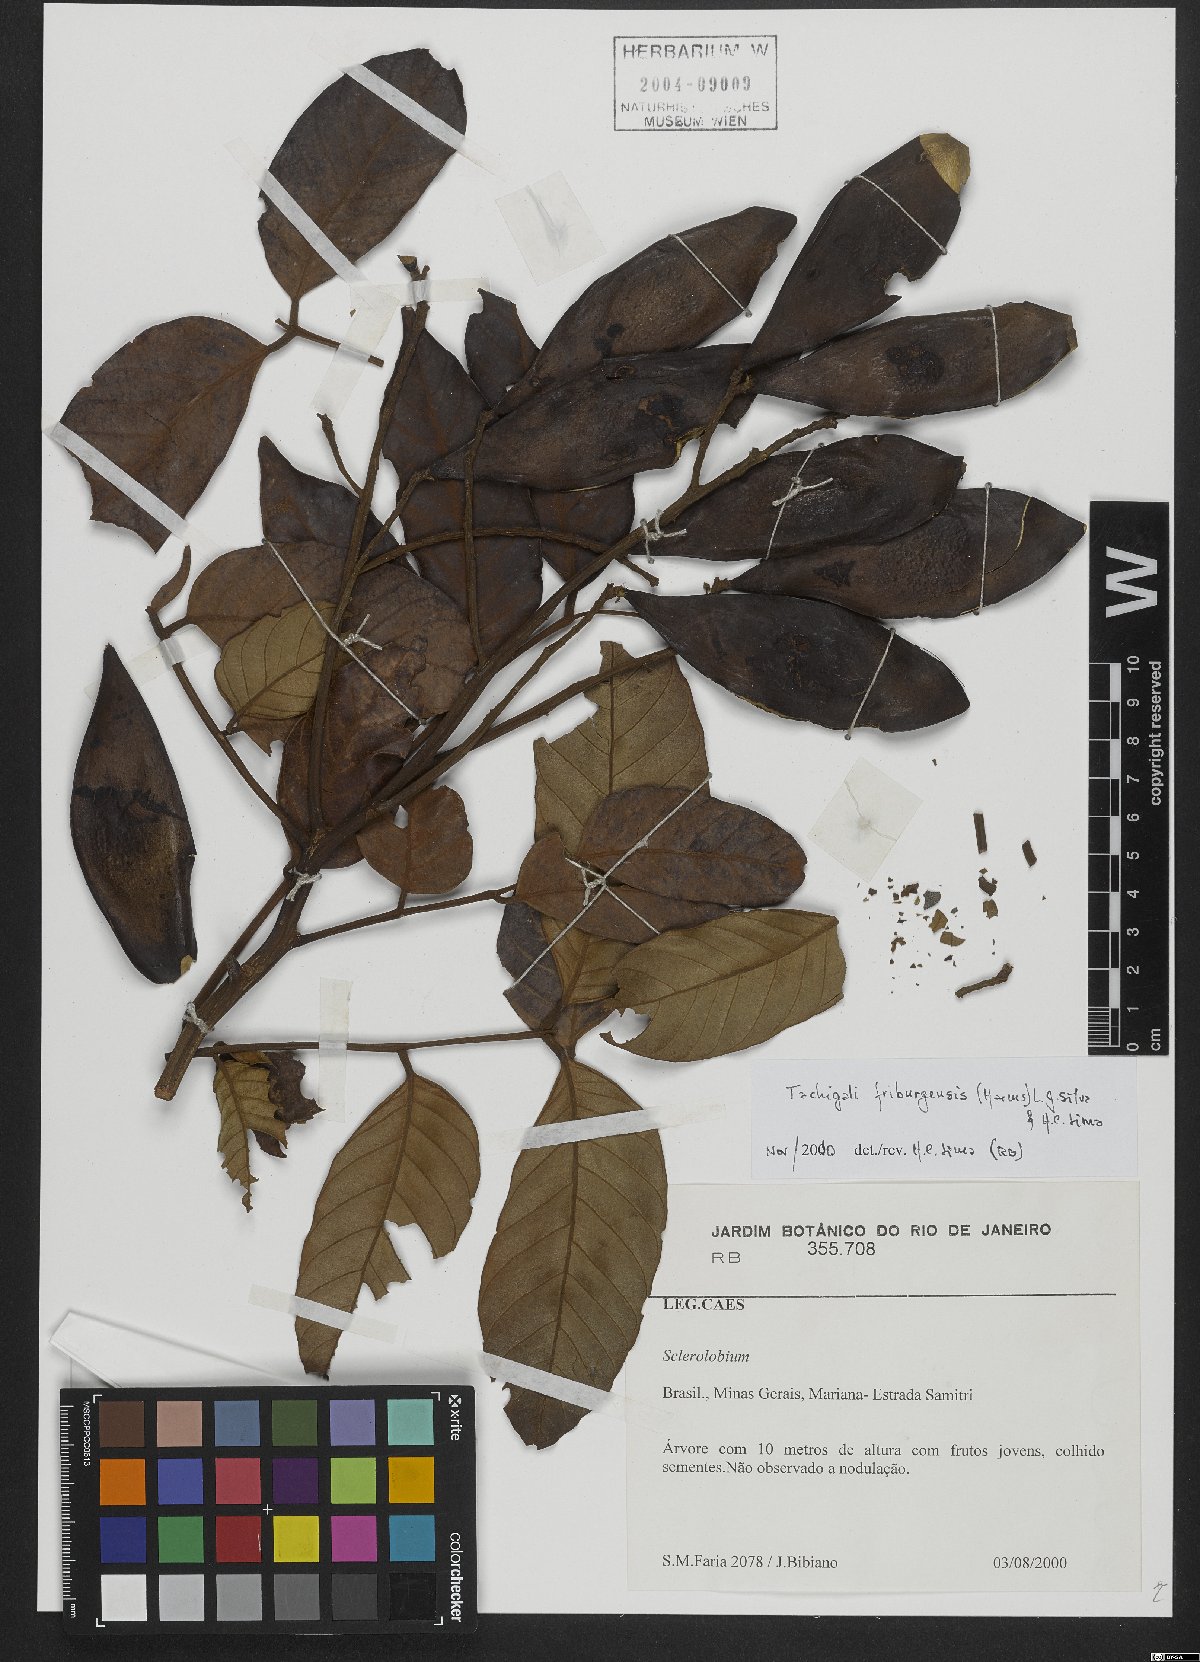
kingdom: Plantae
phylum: Tracheophyta
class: Magnoliopsida
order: Fabales
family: Fabaceae
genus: Tachigali
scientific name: Tachigali friburgensis
